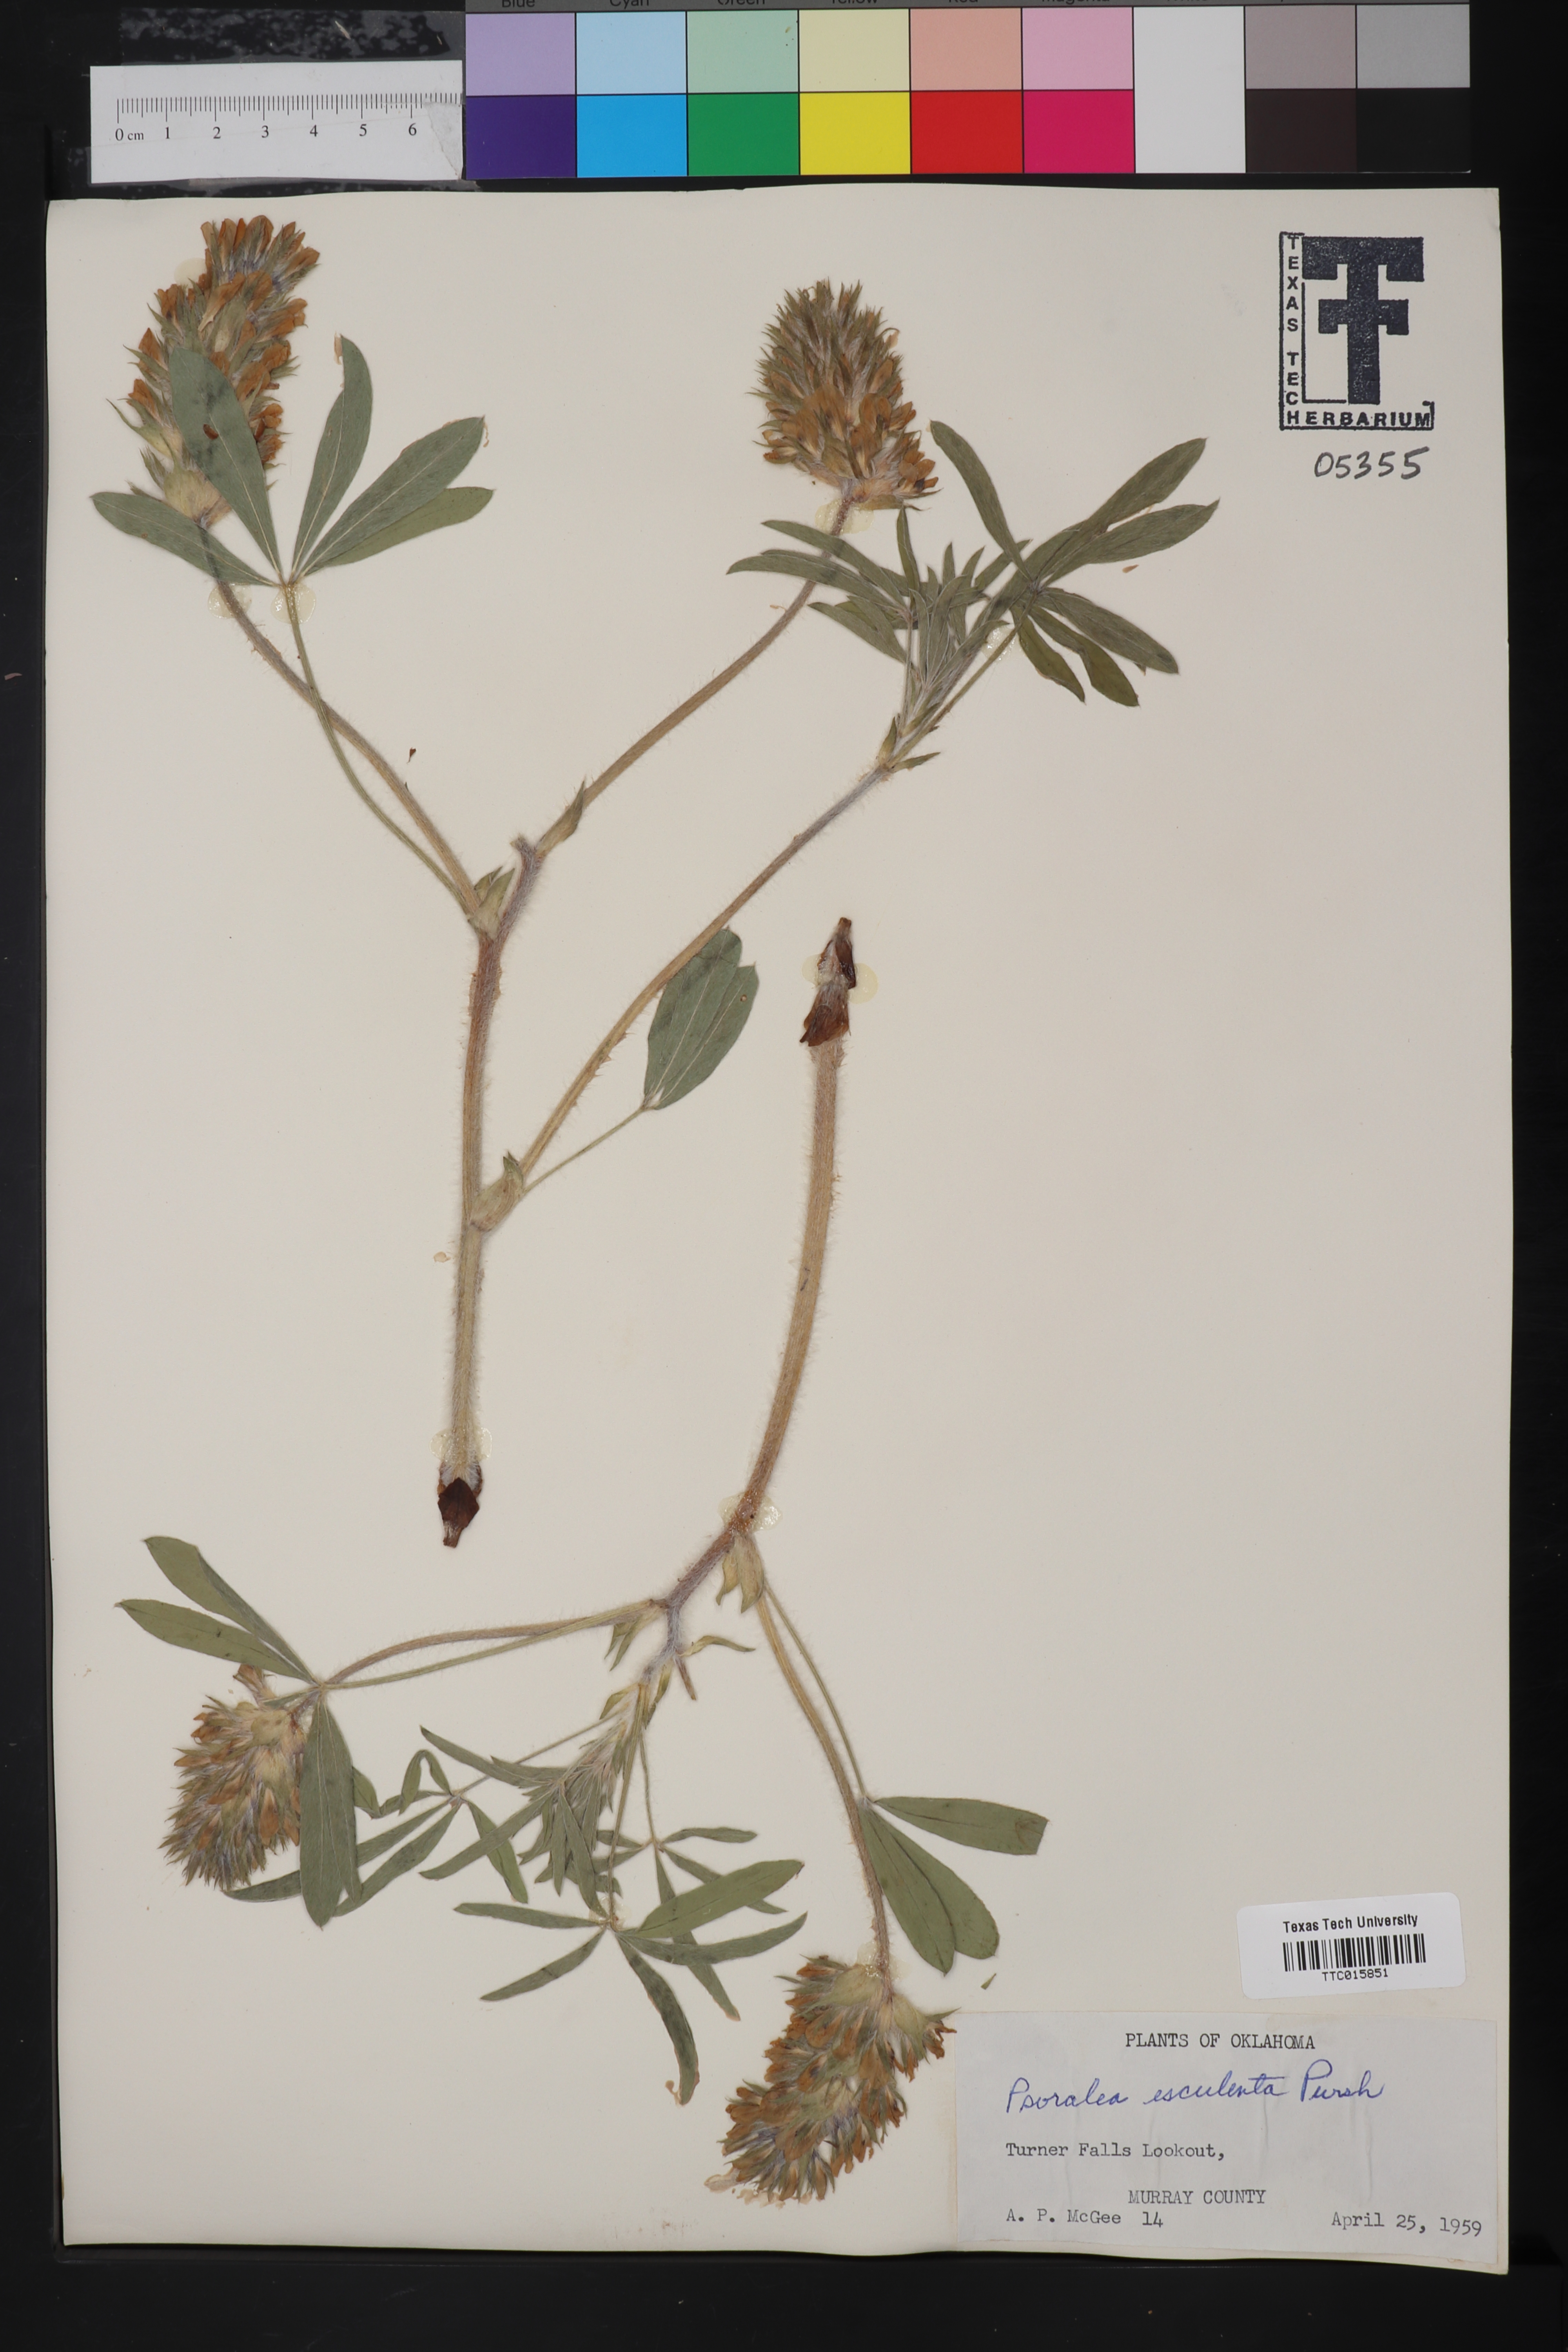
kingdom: Plantae
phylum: Tracheophyta
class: Magnoliopsida
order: Fabales
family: Fabaceae
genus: Pediomelum
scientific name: Pediomelum humile
